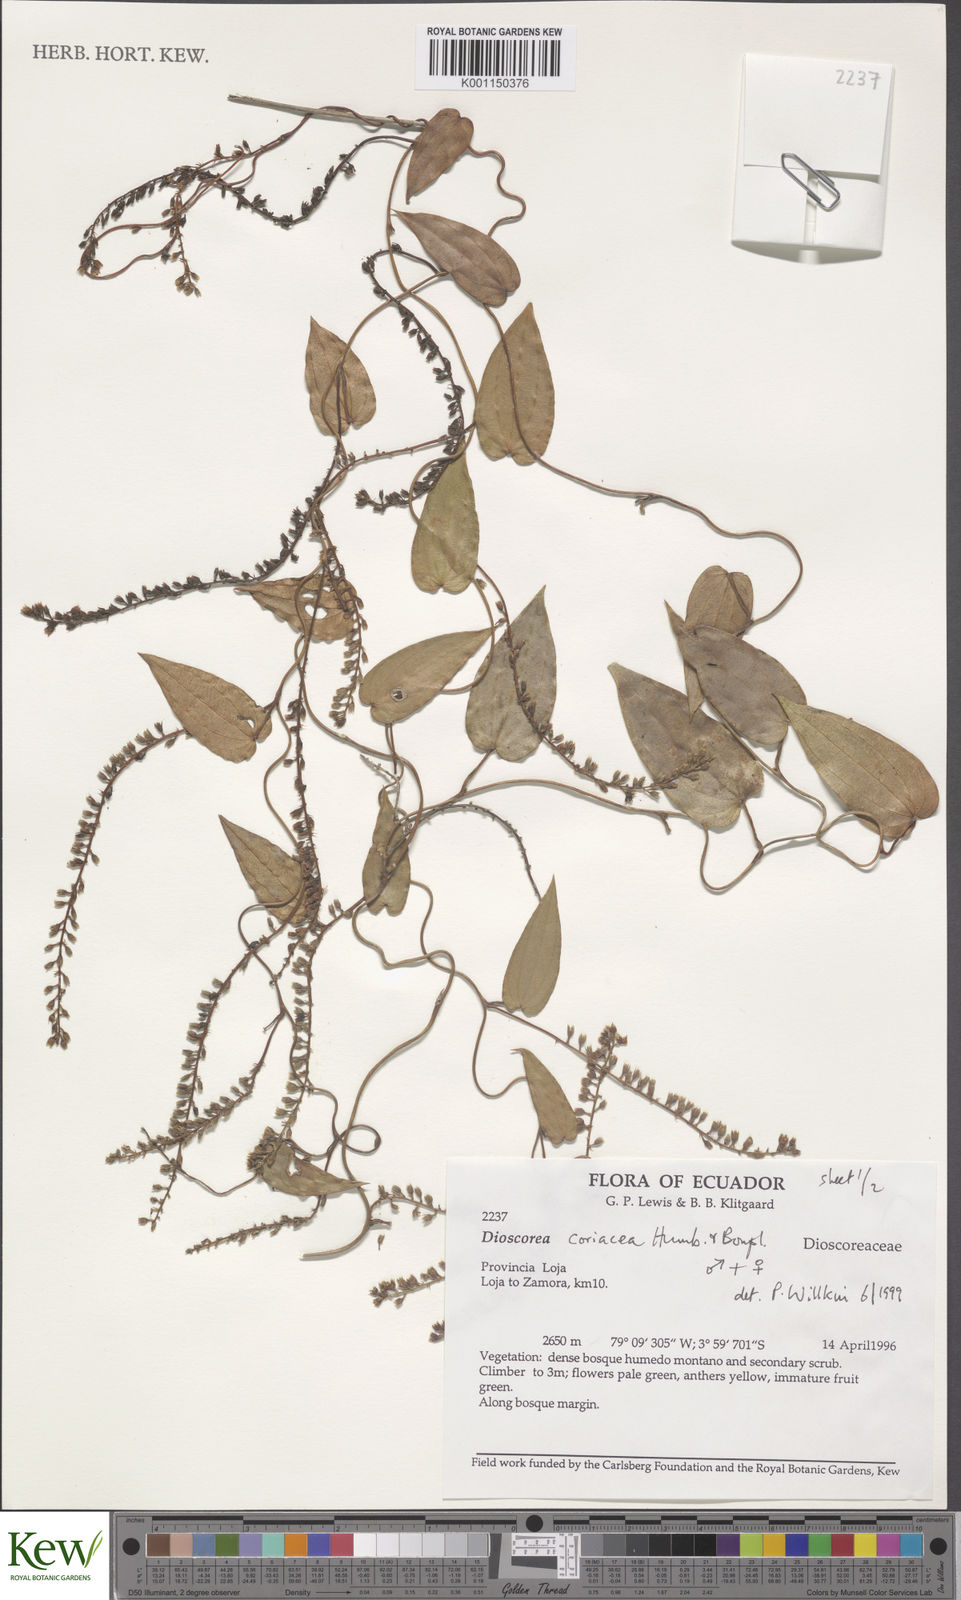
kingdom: Plantae
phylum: Tracheophyta
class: Liliopsida
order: Dioscoreales
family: Dioscoreaceae
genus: Dioscorea
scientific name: Dioscorea coriacea
